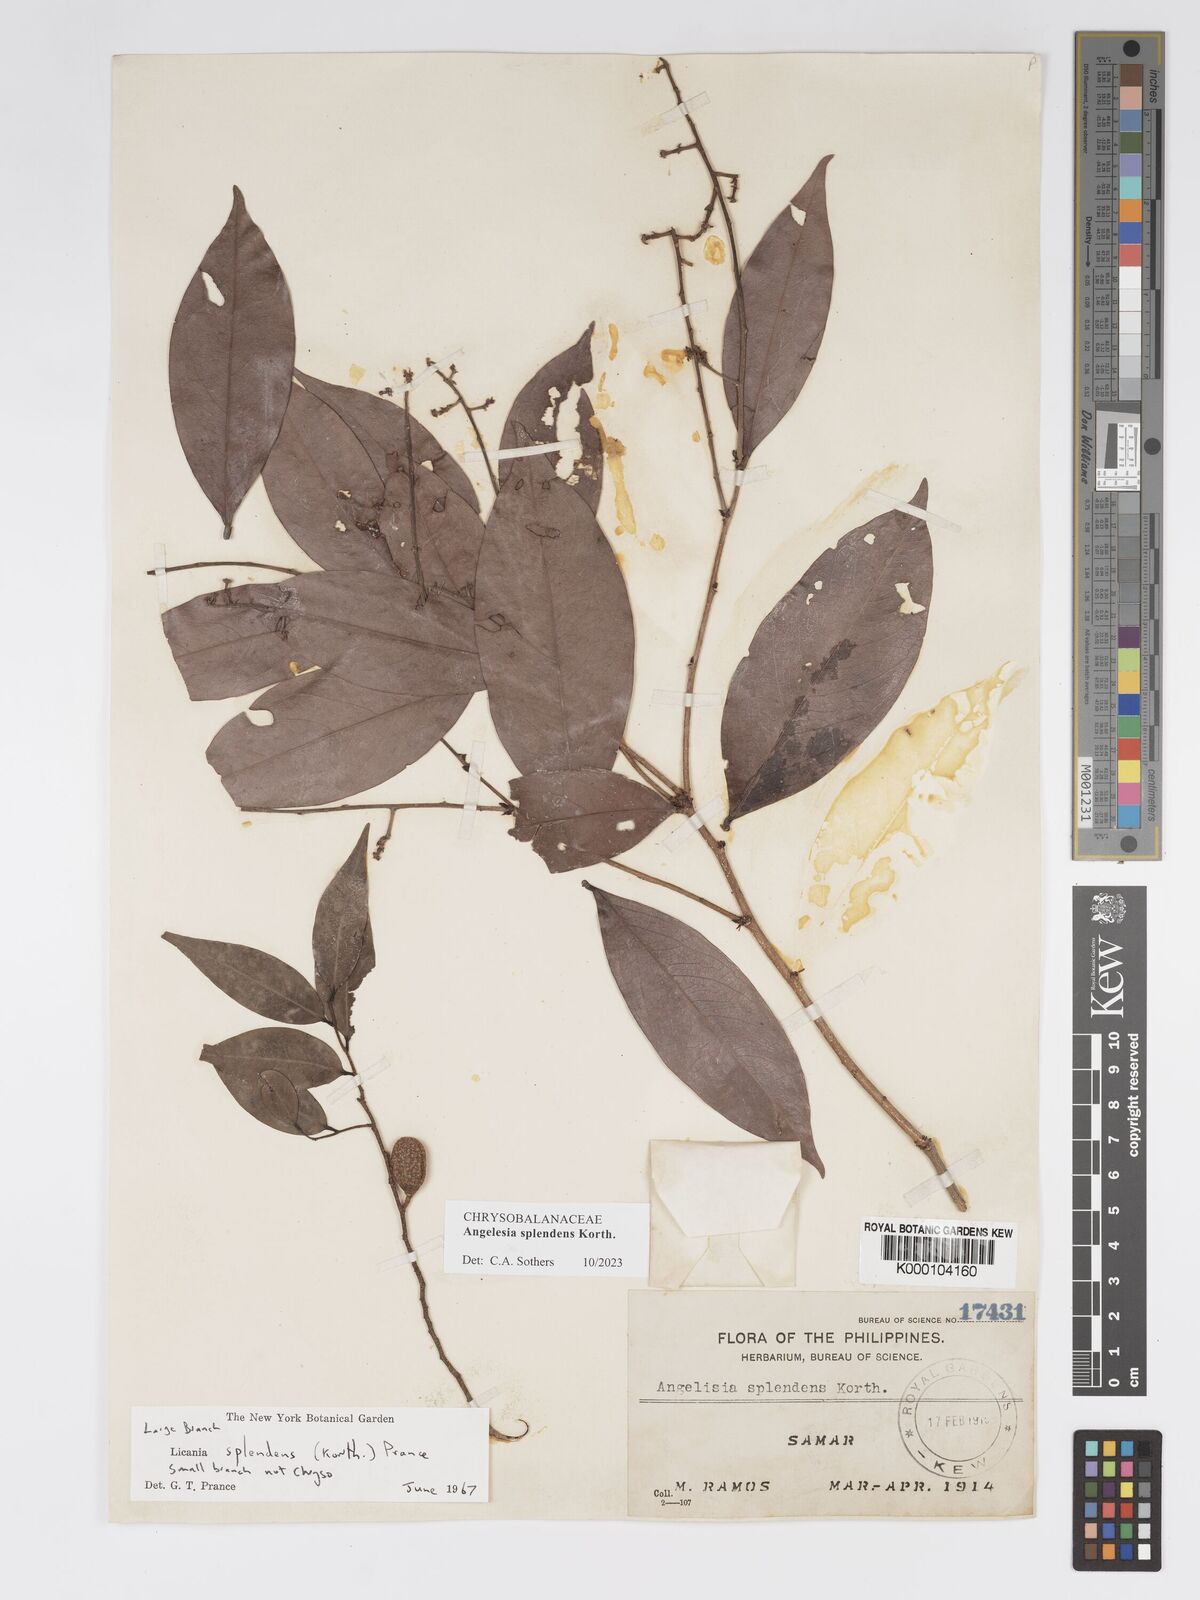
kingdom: Plantae
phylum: Tracheophyta
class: Magnoliopsida
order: Malpighiales
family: Chrysobalanaceae
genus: Angelesia
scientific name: Angelesia splendens
